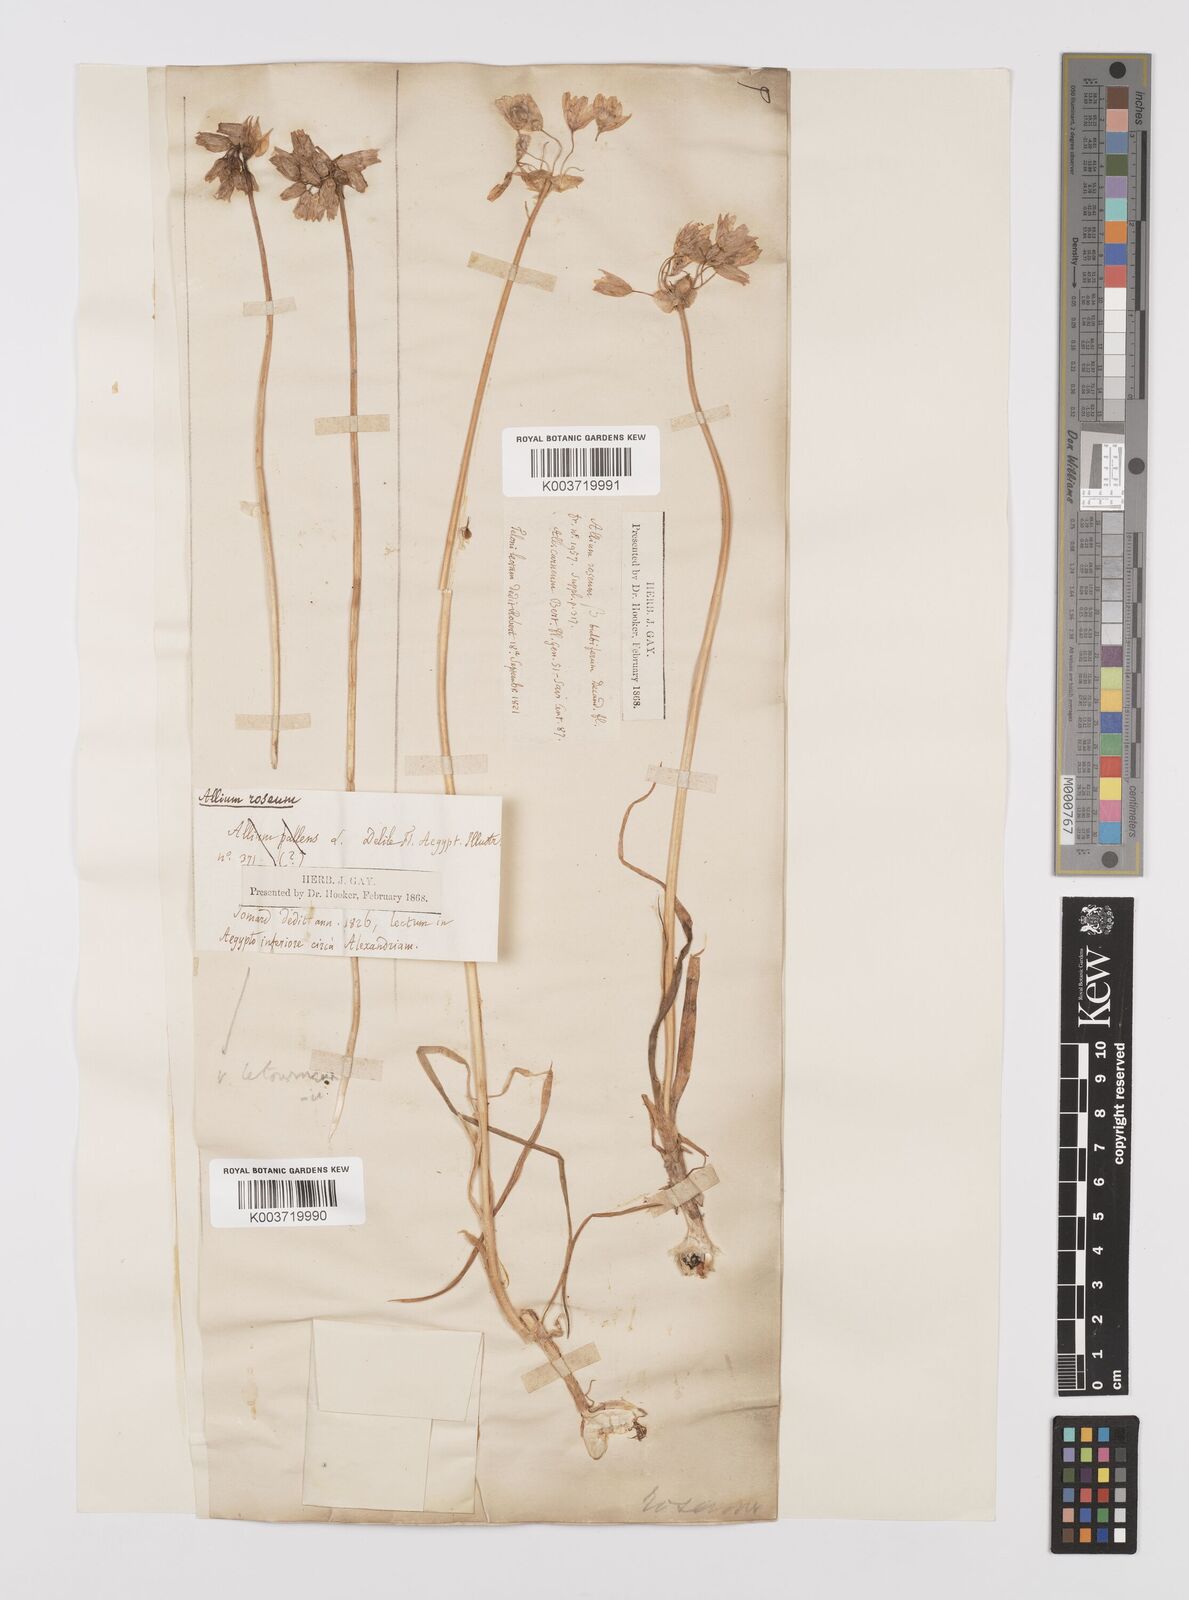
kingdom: Plantae
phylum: Tracheophyta
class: Liliopsida
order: Asparagales
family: Amaryllidaceae
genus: Allium
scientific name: Allium roseum
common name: Rosy garlic
